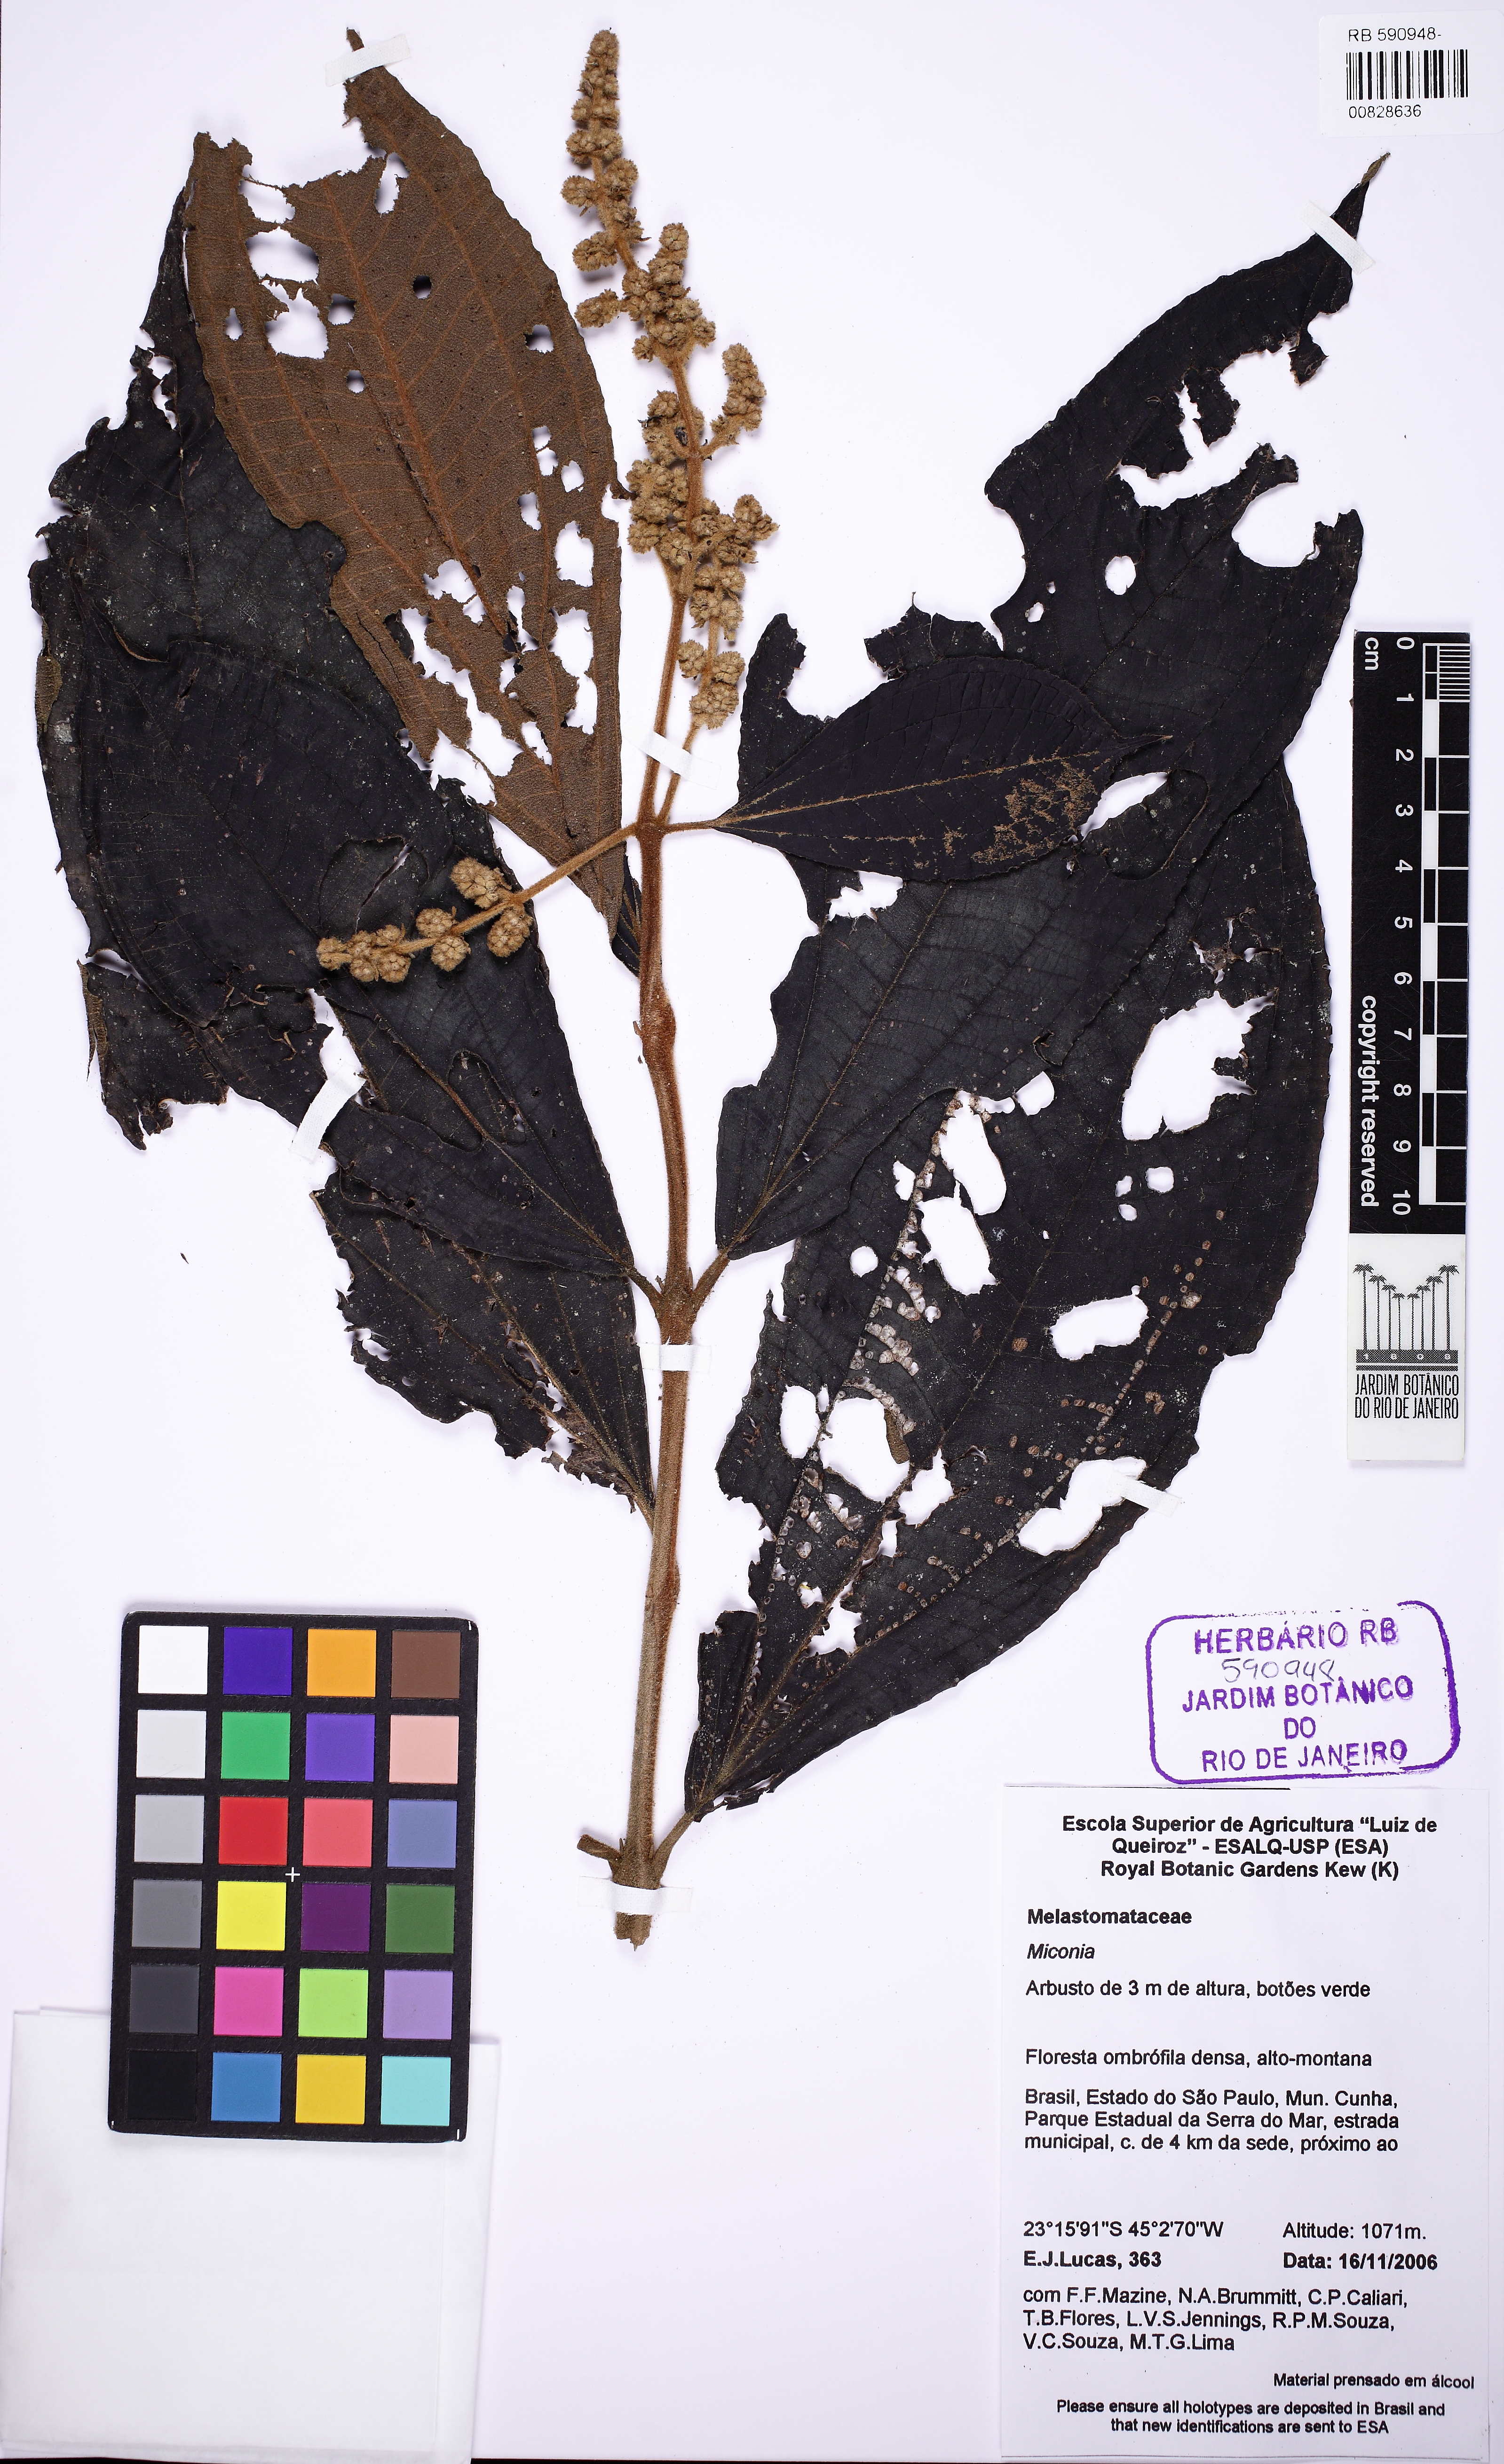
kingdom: Plantae
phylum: Tracheophyta
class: Magnoliopsida
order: Myrtales
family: Melastomataceae
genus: Miconia
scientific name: Miconia fasciculata
